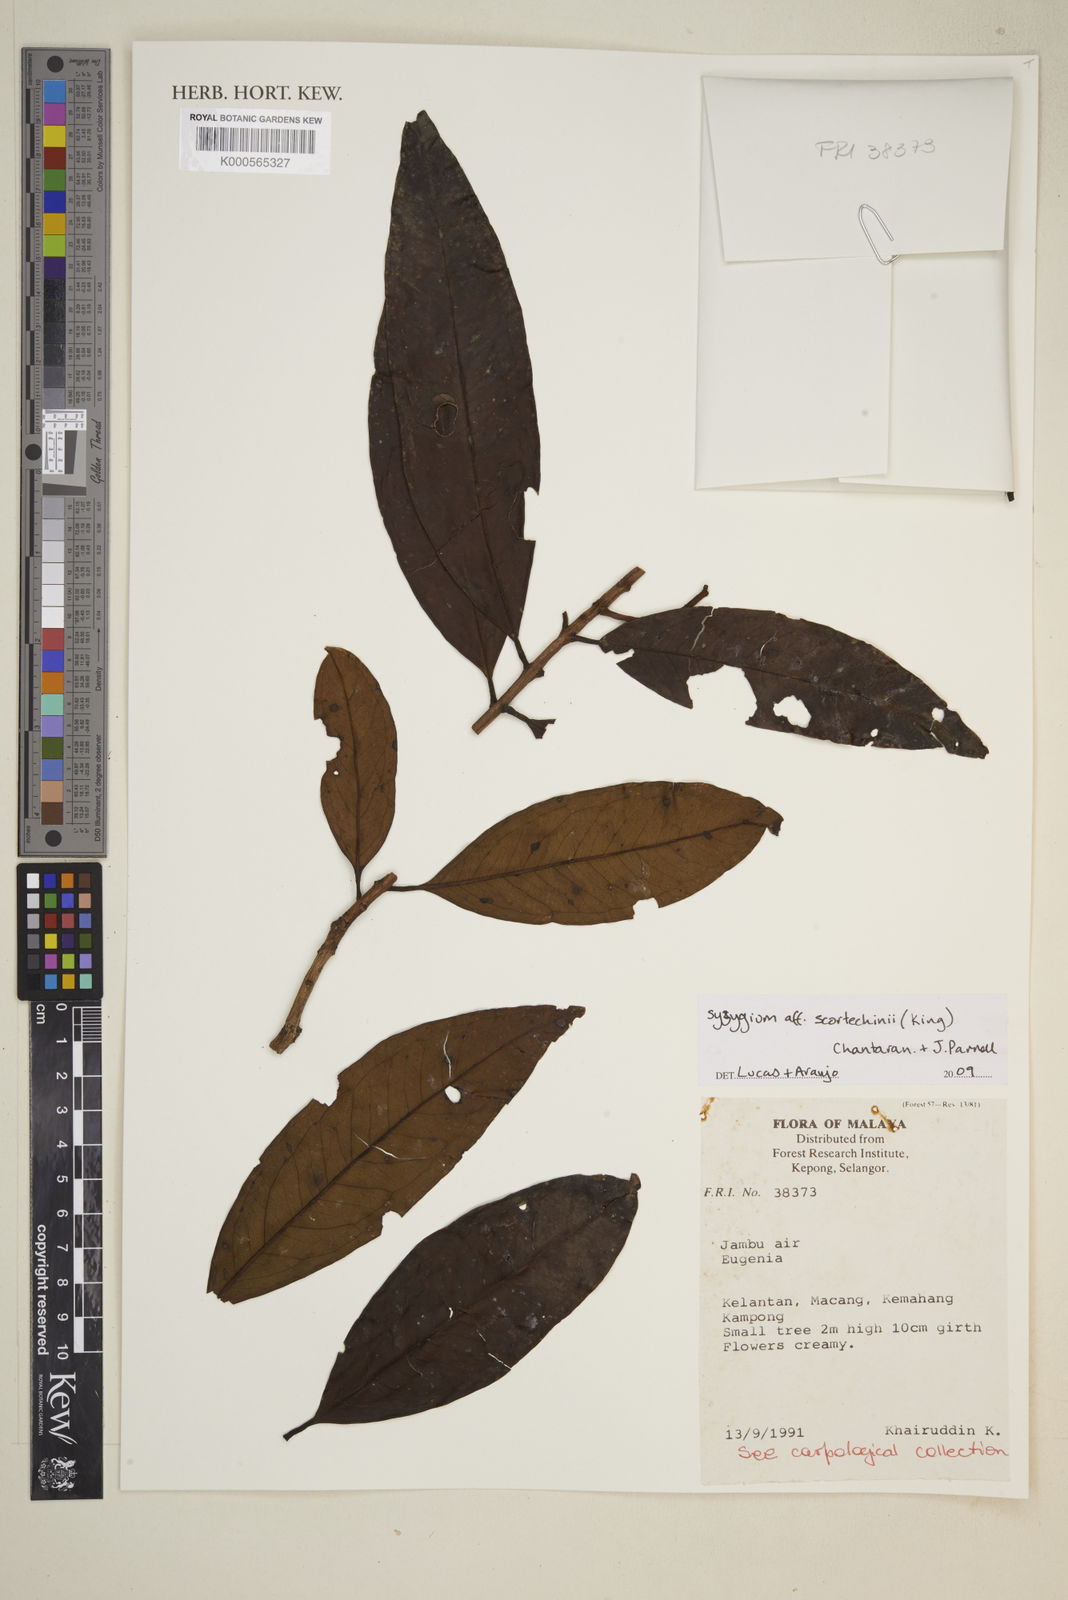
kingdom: Plantae
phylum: Tracheophyta
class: Magnoliopsida
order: Myrtales
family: Myrtaceae
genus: Syzygium
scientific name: Syzygium scortechinii
